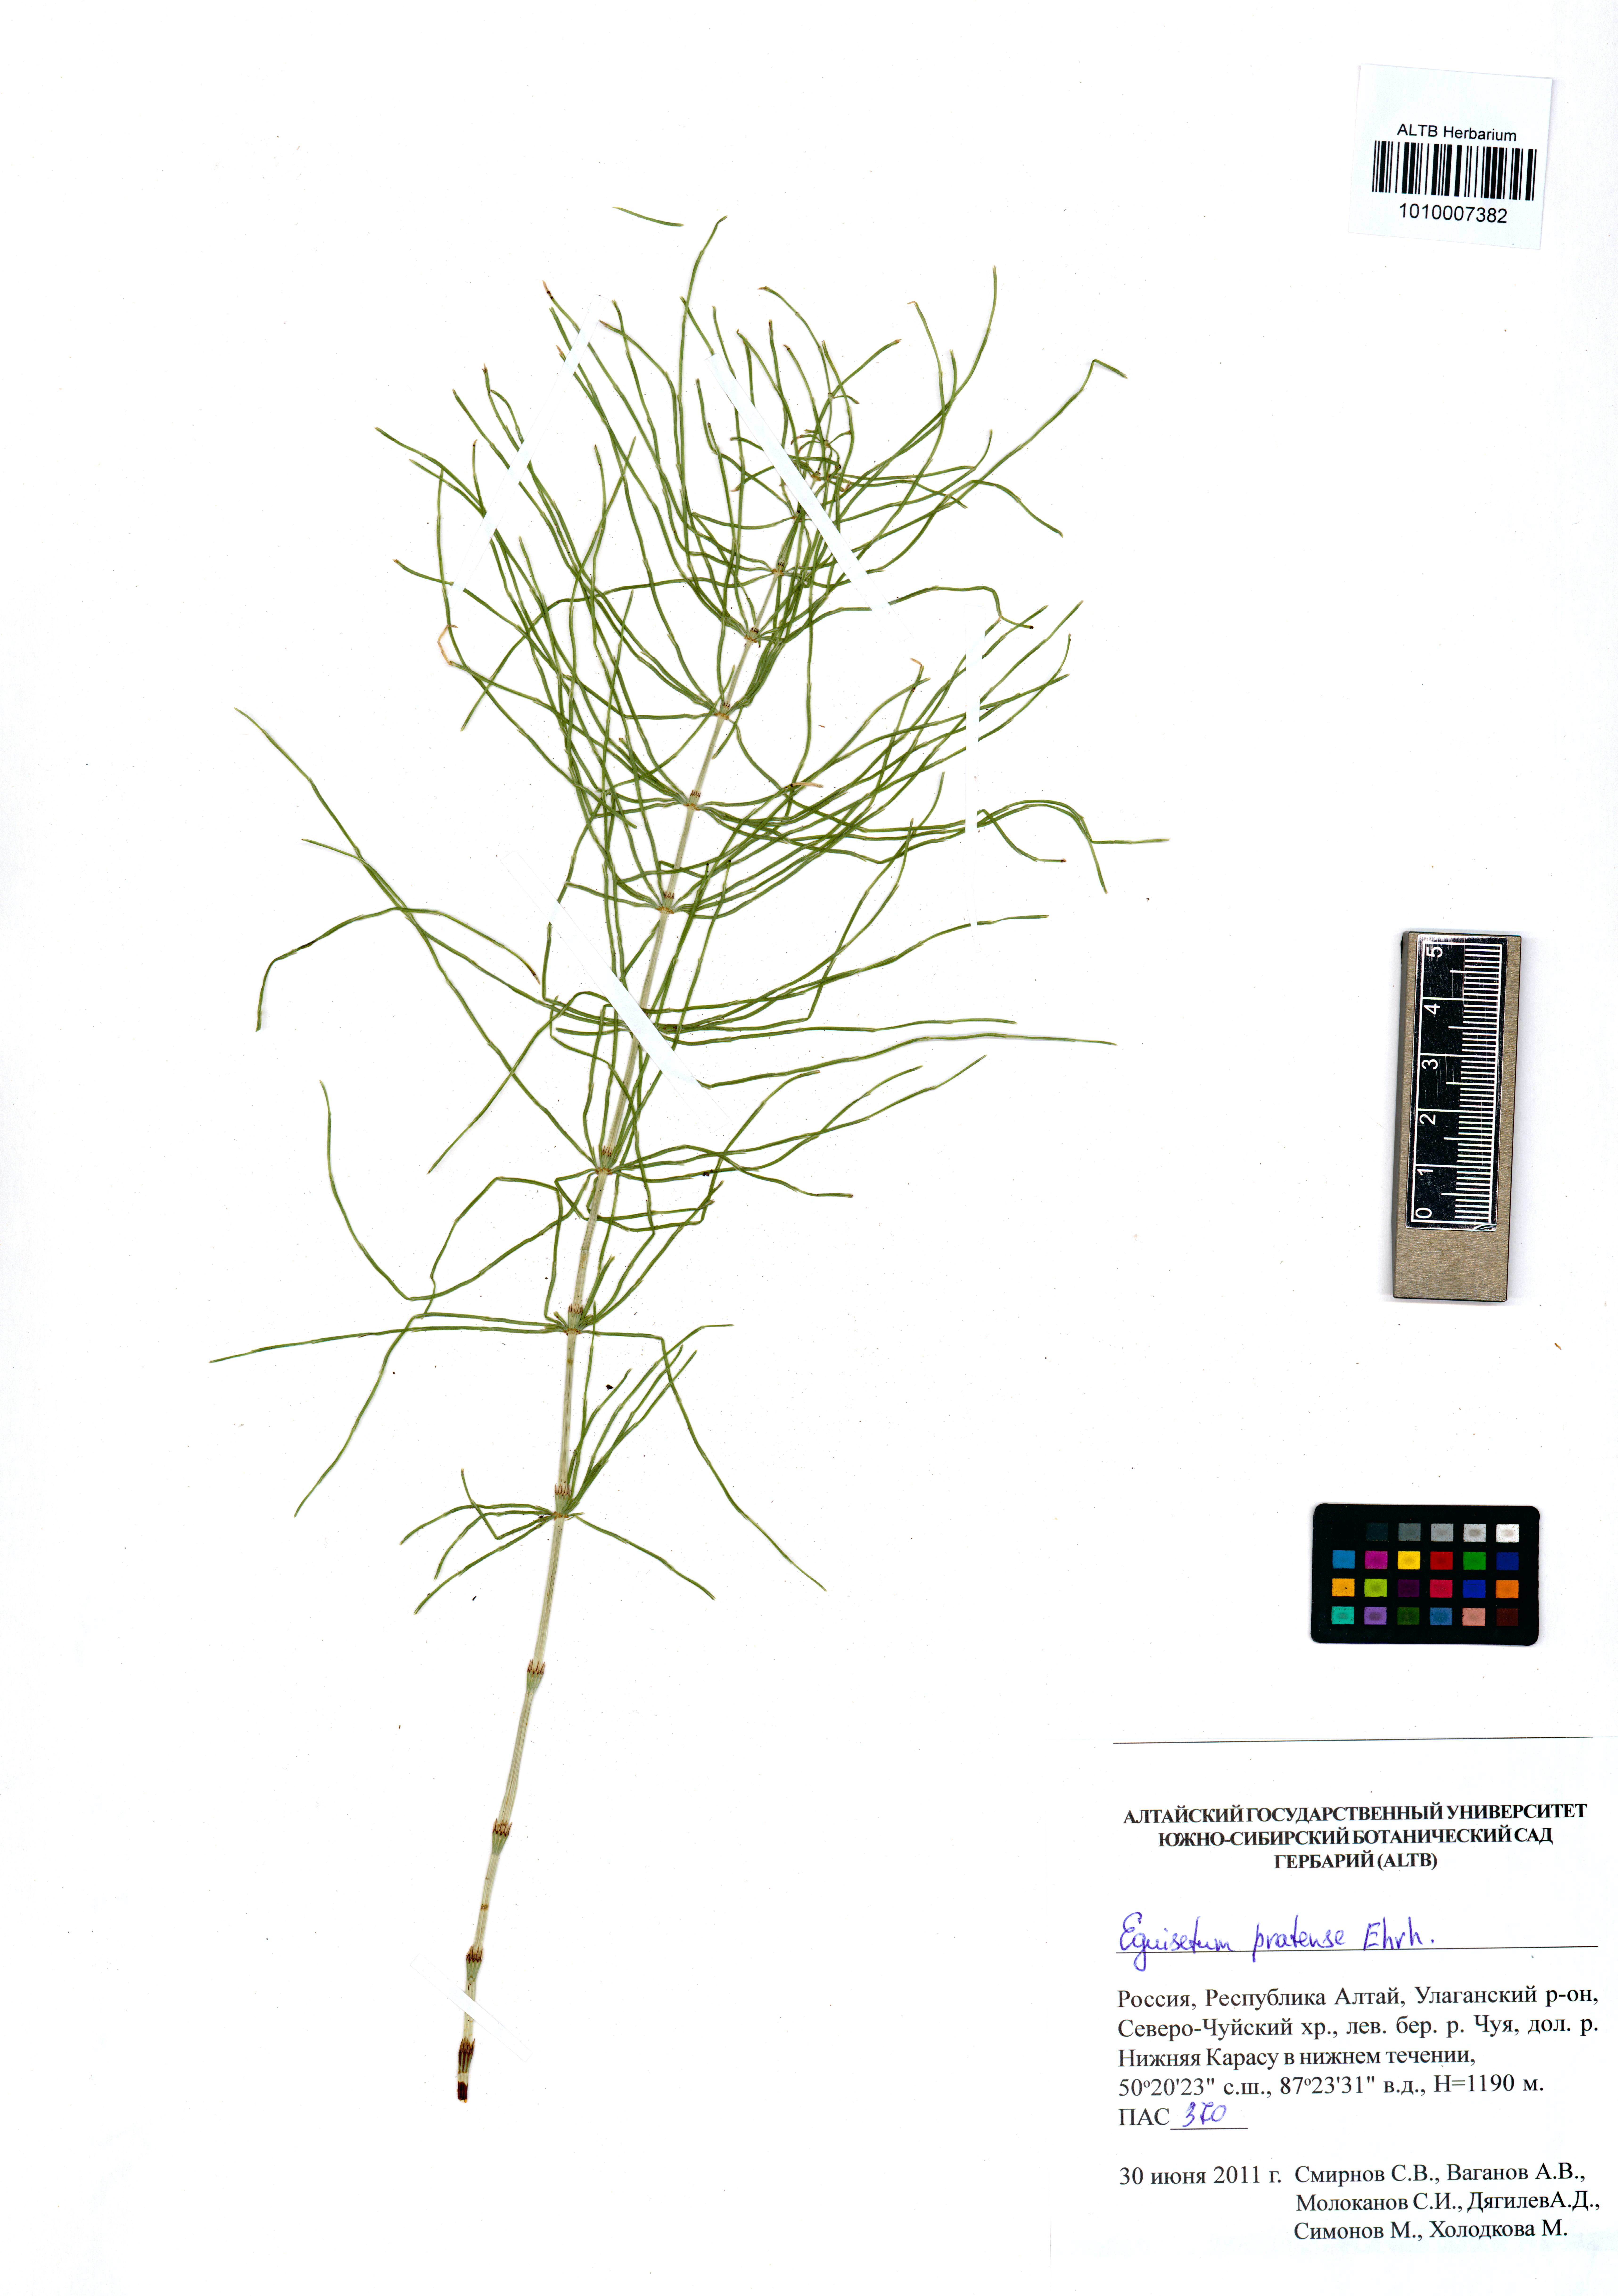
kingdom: Plantae
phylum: Tracheophyta
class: Polypodiopsida
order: Equisetales
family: Equisetaceae
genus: Equisetum
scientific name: Equisetum pratense
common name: Meadow horsetail
